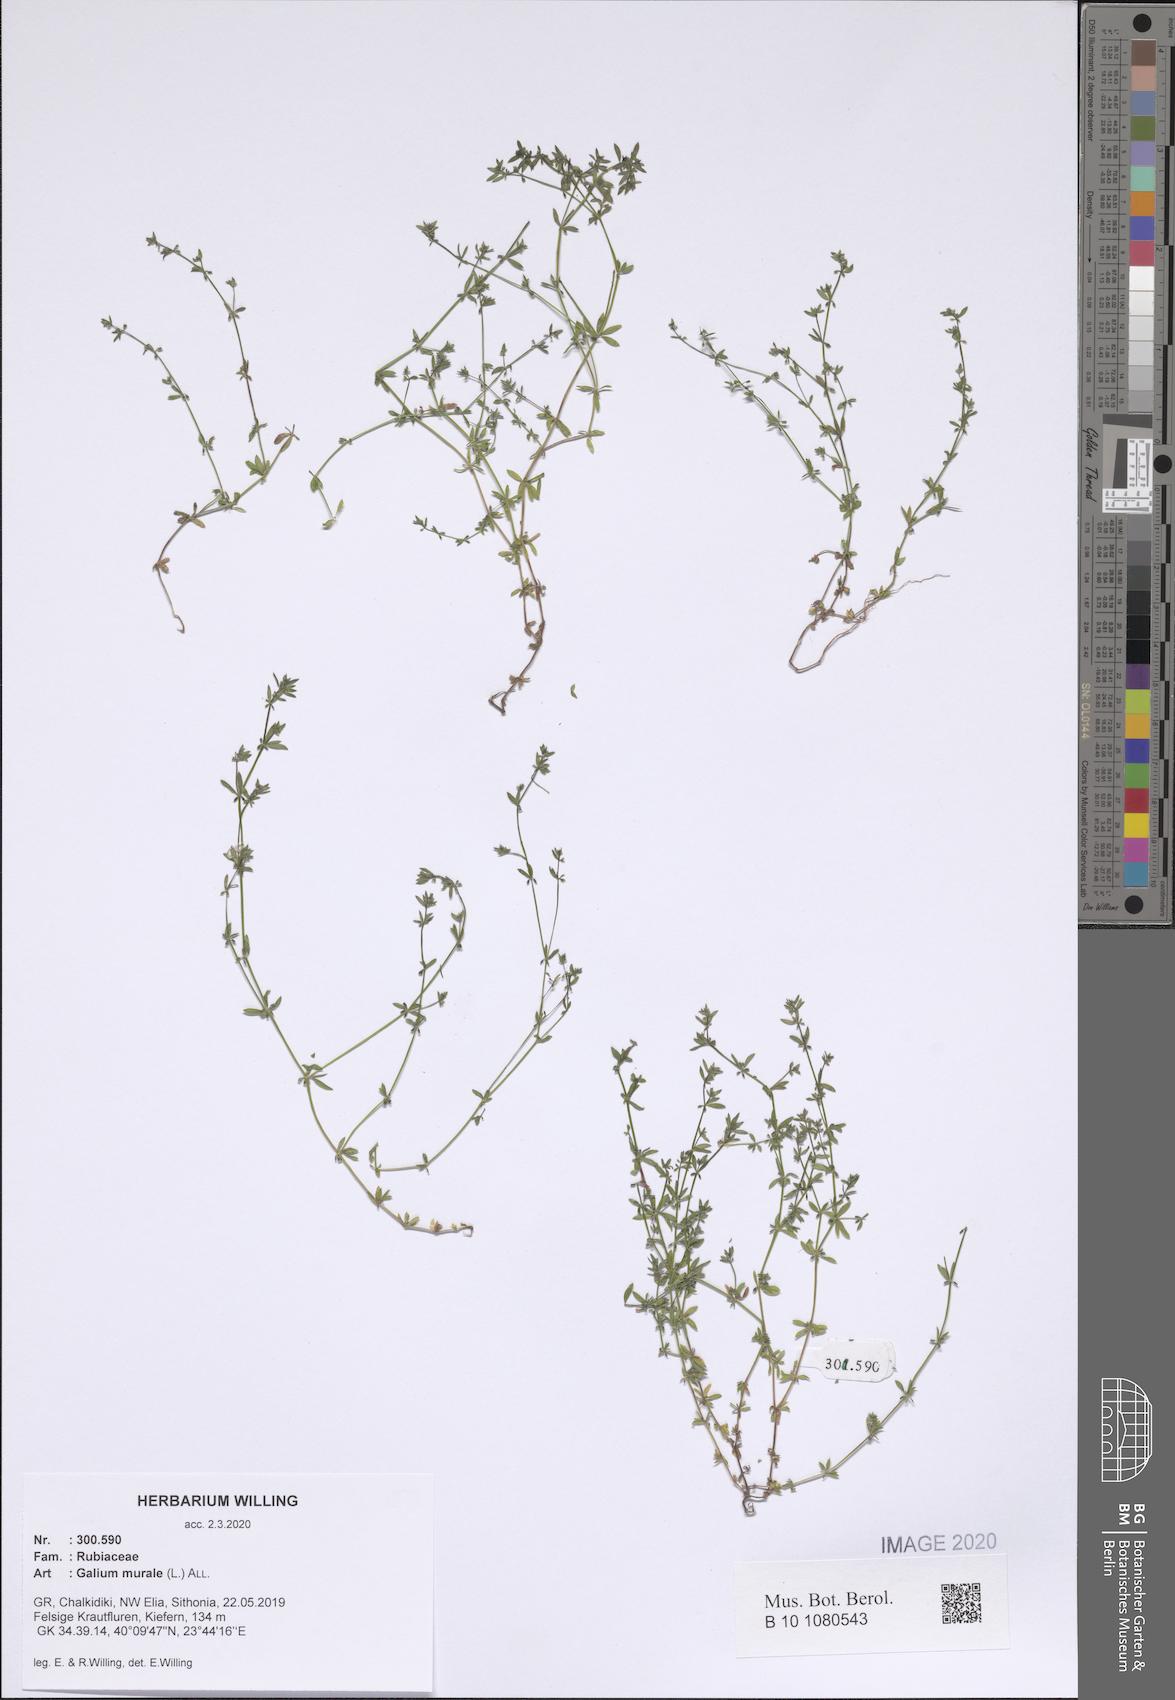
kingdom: Plantae
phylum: Tracheophyta
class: Magnoliopsida
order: Gentianales
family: Rubiaceae
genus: Galium
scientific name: Galium murale
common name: Yellow wall bedstraw
